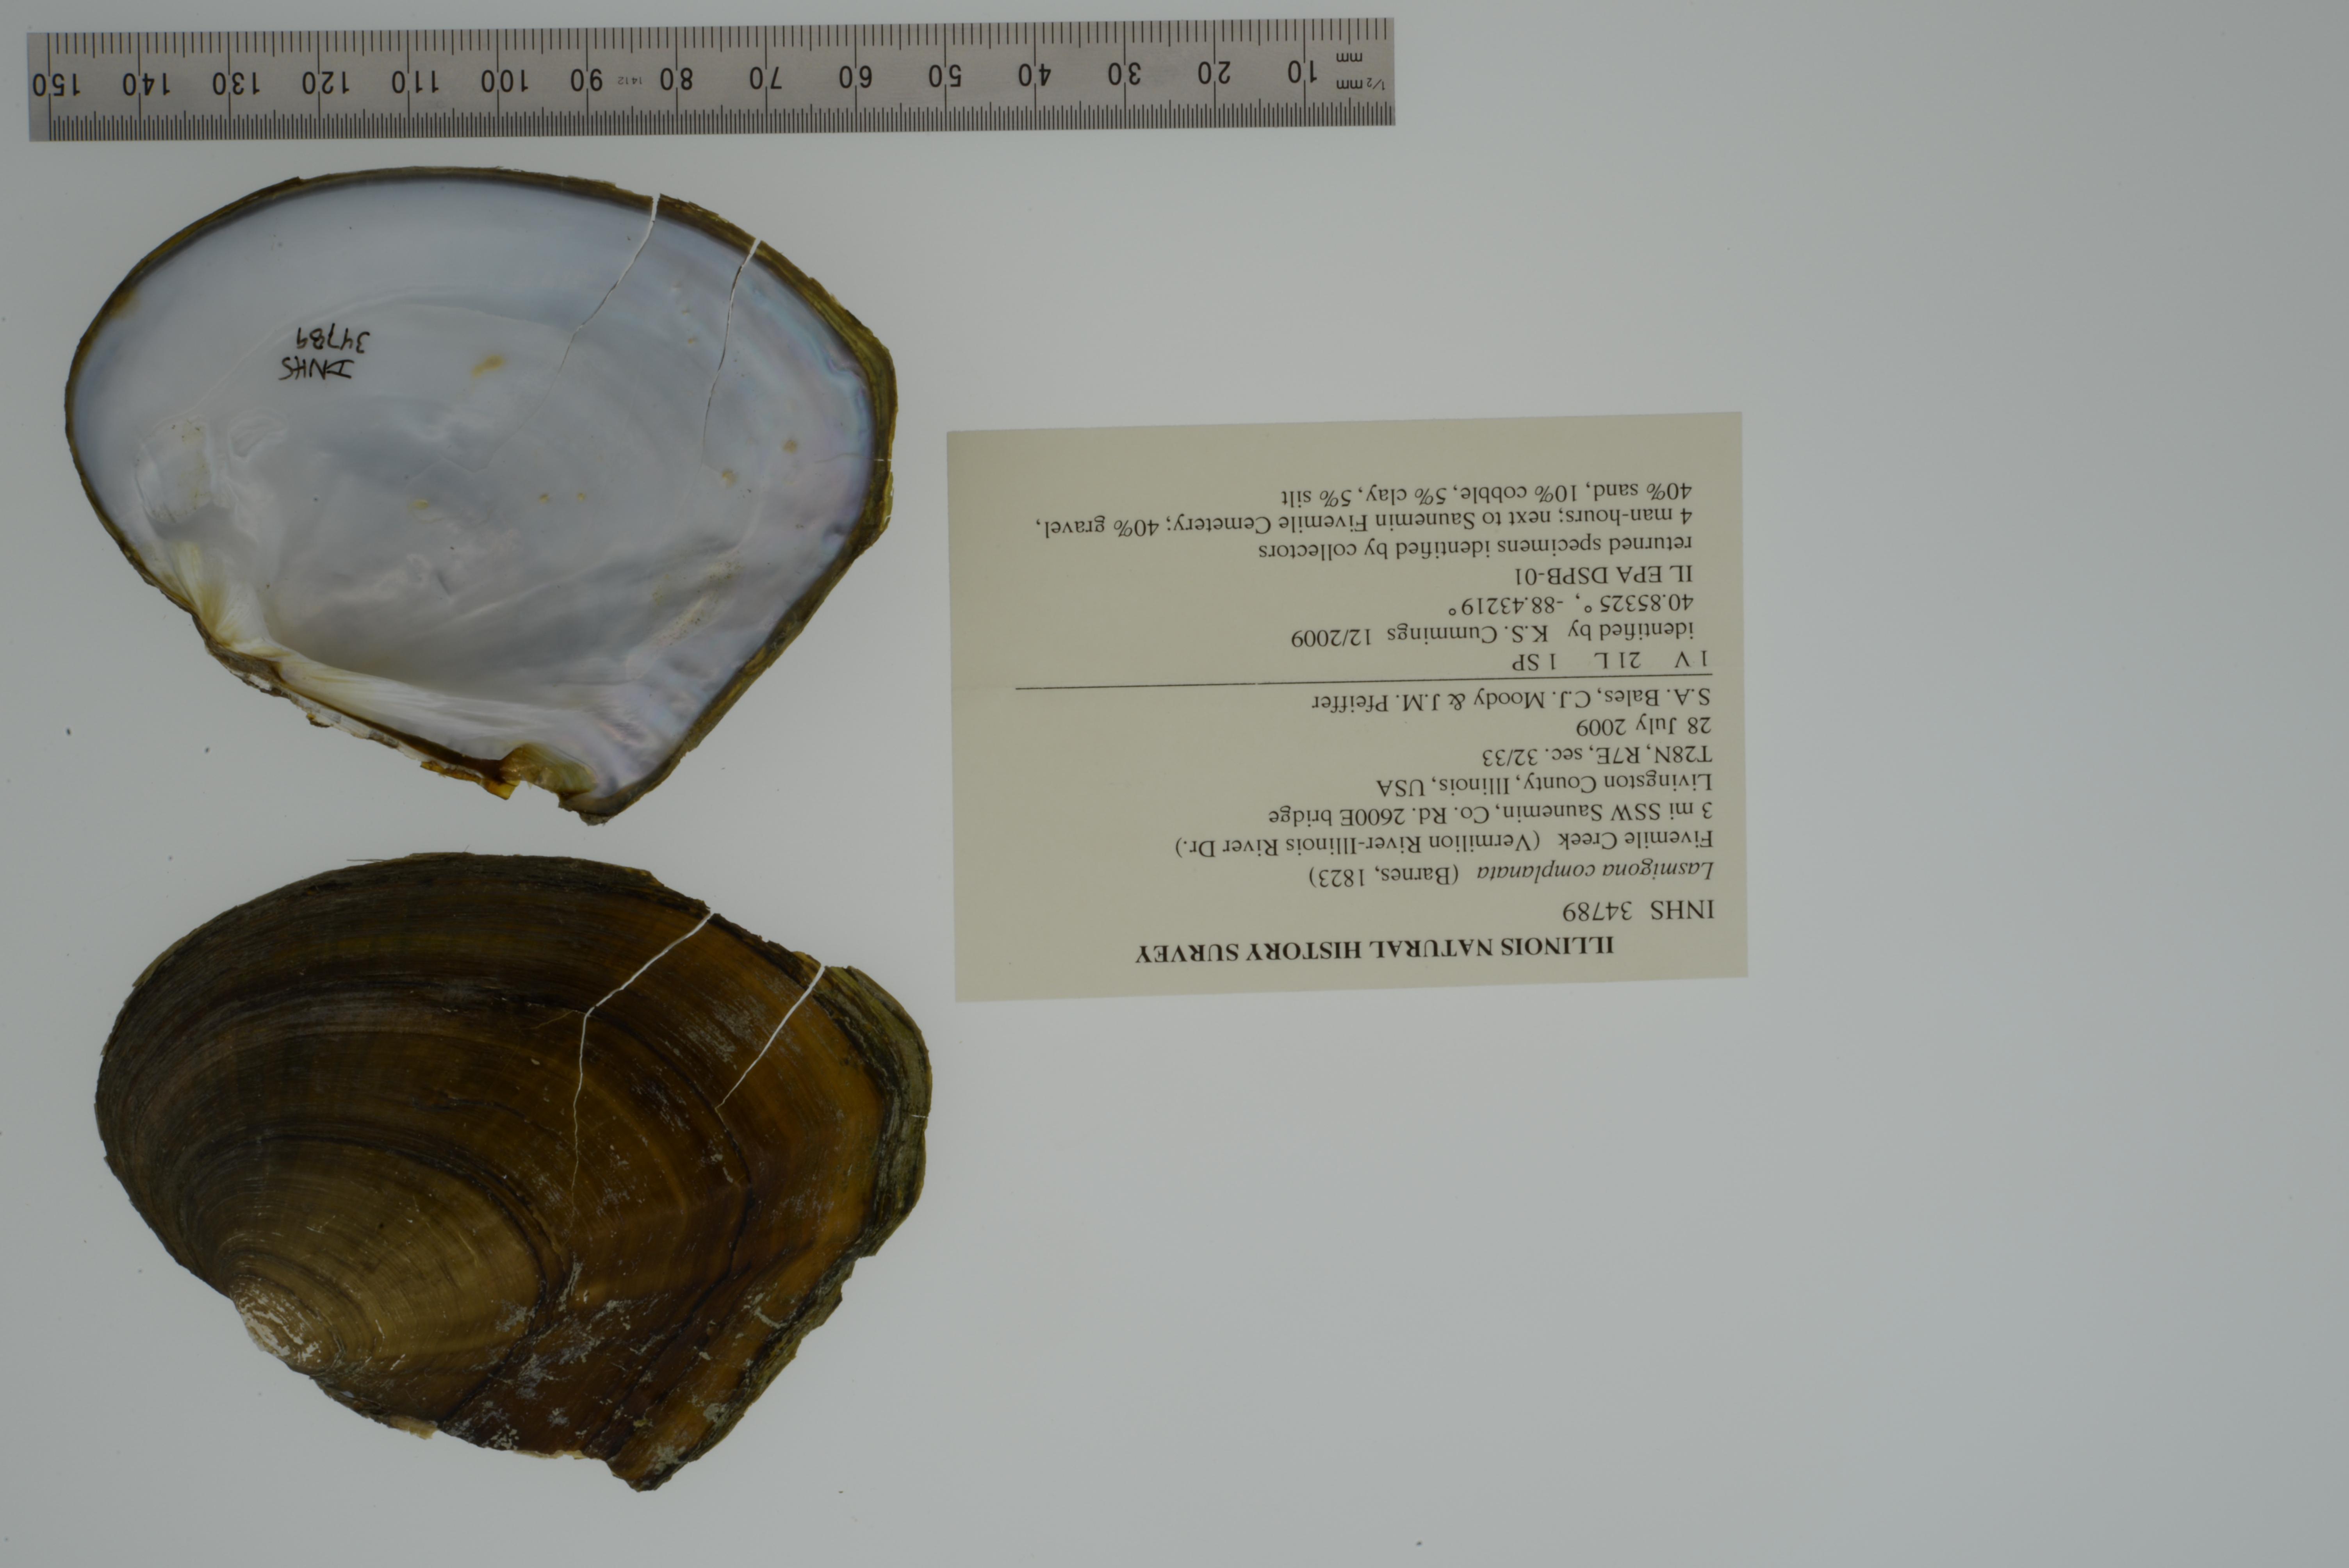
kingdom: Animalia
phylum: Mollusca
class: Bivalvia
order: Unionida
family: Unionidae
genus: Lasmigona
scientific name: Lasmigona complanata
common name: White heelsplitter
